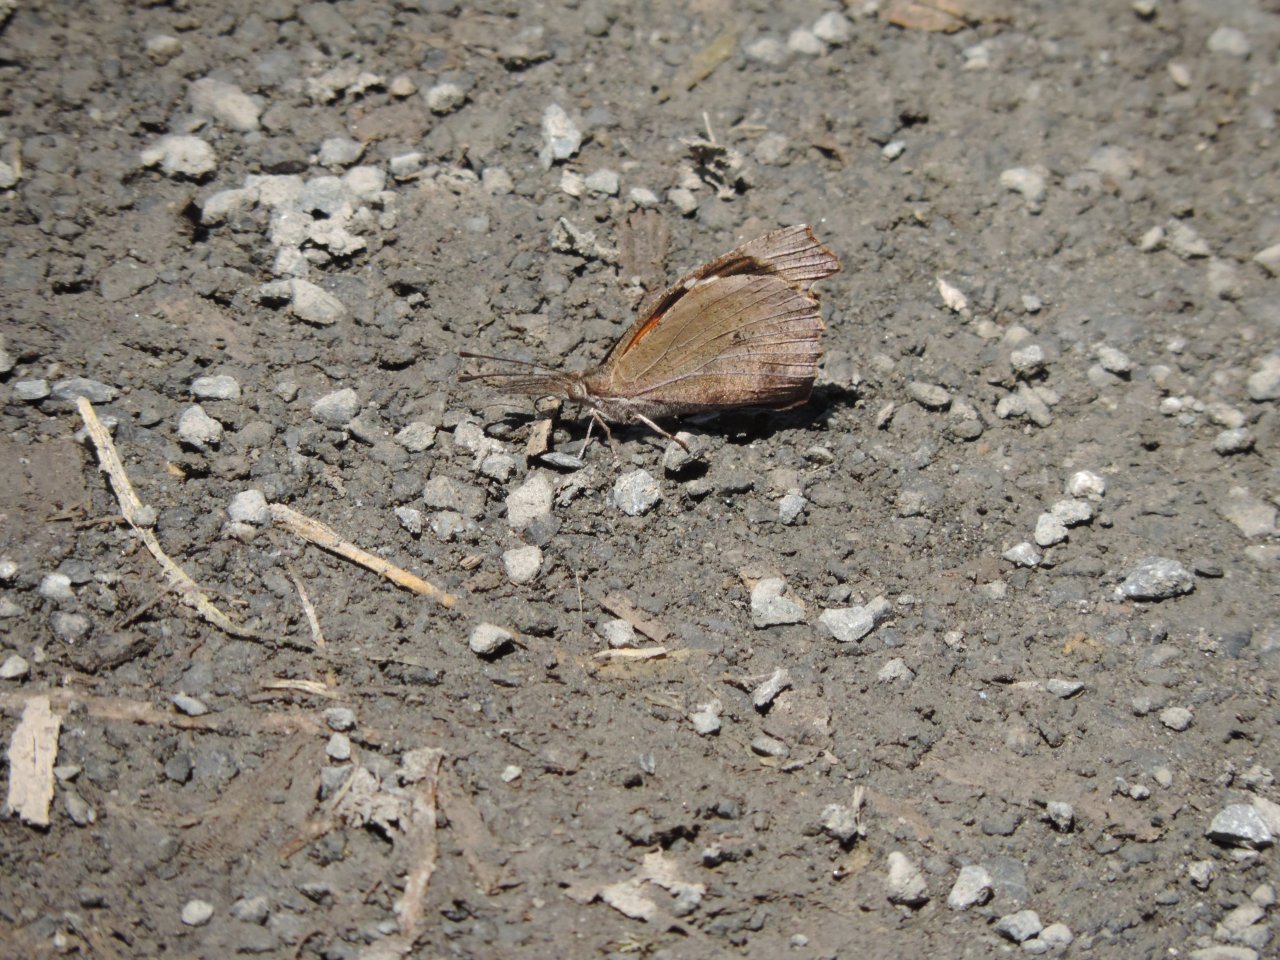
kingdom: Animalia
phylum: Arthropoda
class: Insecta
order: Lepidoptera
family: Nymphalidae
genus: Libytheana
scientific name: Libytheana carinenta
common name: American Snout
